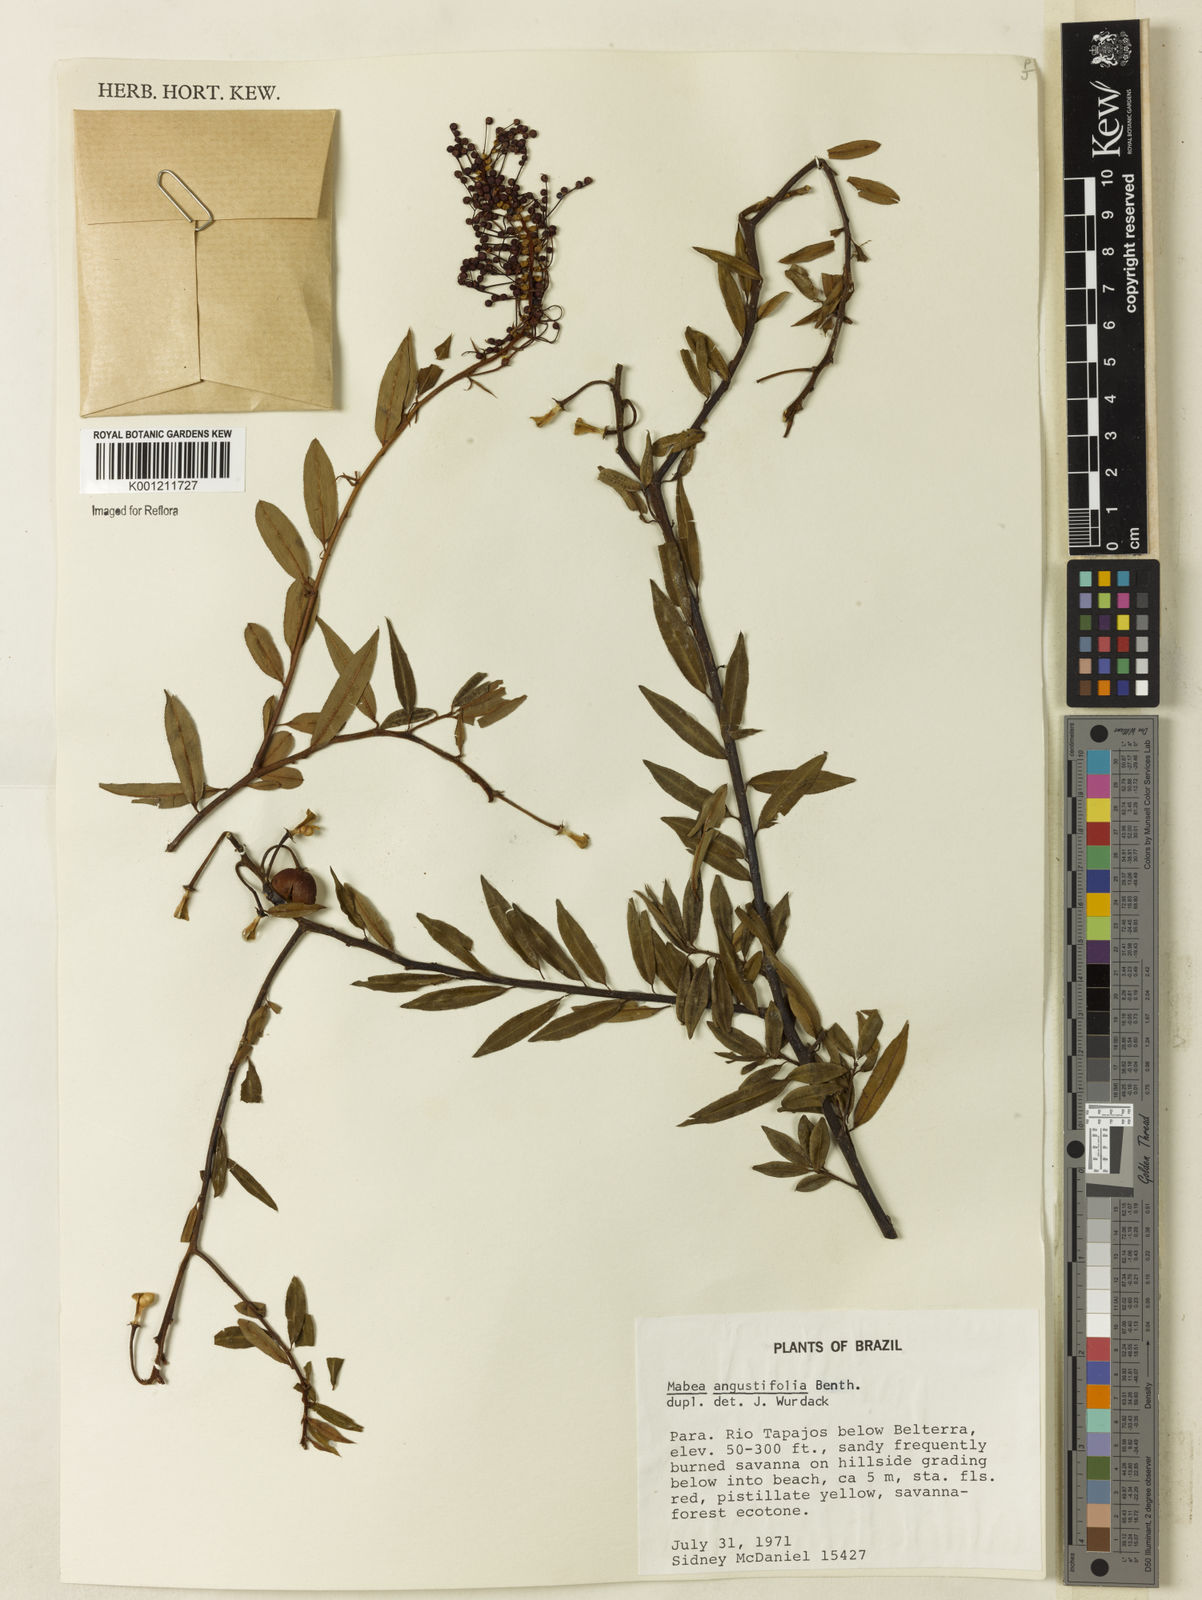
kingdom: Plantae
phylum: Tracheophyta
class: Magnoliopsida
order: Malpighiales
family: Euphorbiaceae
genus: Mabea
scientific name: Mabea angustifolia
